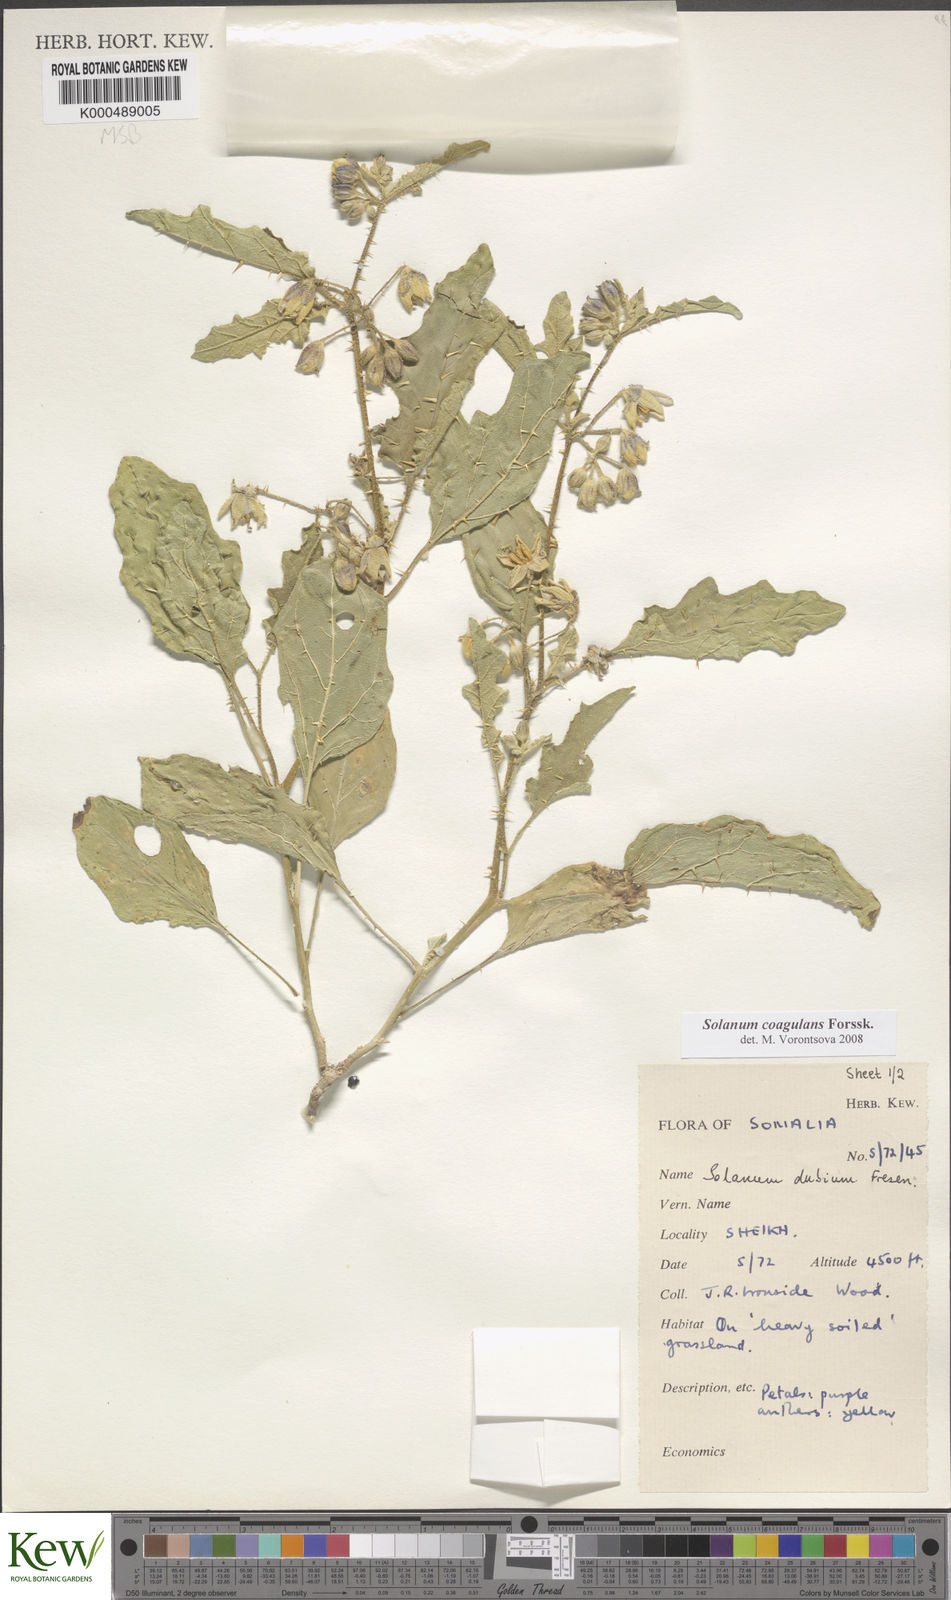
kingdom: Plantae
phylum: Tracheophyta
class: Magnoliopsida
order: Solanales
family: Solanaceae
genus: Solanum
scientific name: Solanum coagulans
